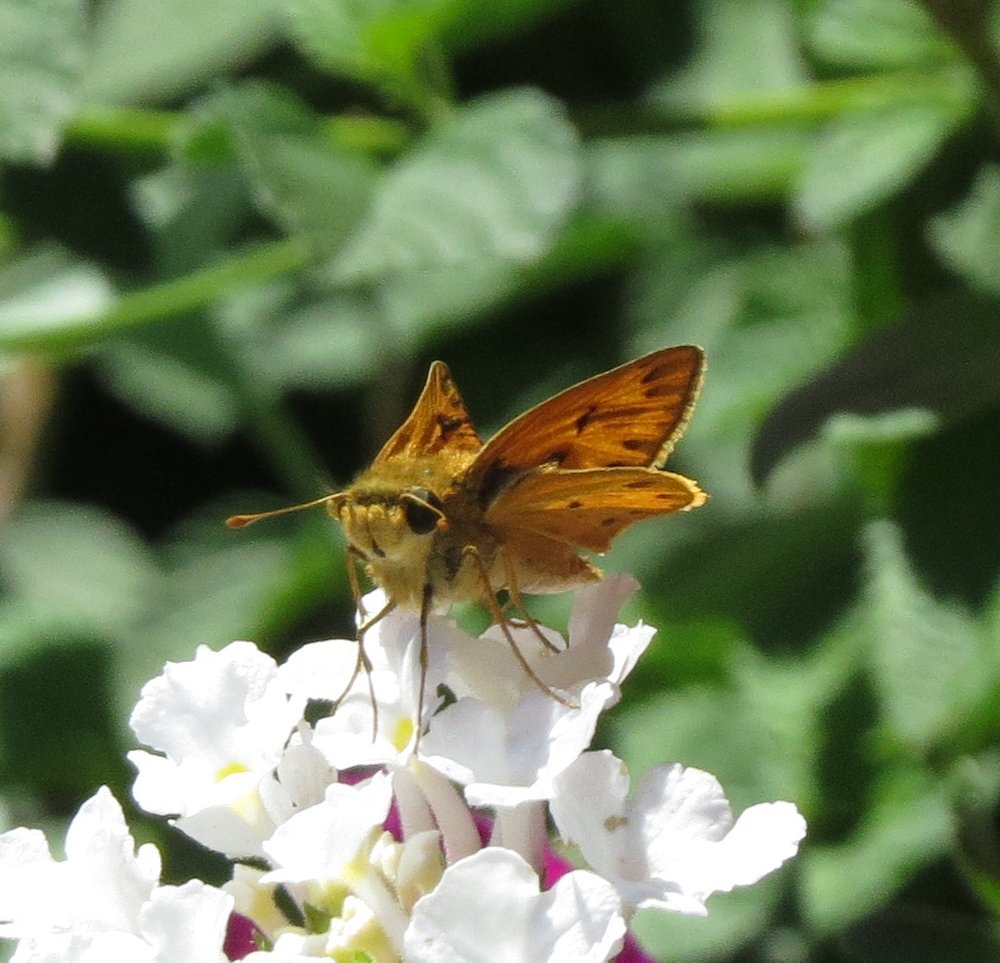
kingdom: Animalia
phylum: Arthropoda
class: Insecta
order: Lepidoptera
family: Hesperiidae
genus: Hylephila
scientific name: Hylephila phyleus
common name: Fiery Skipper
